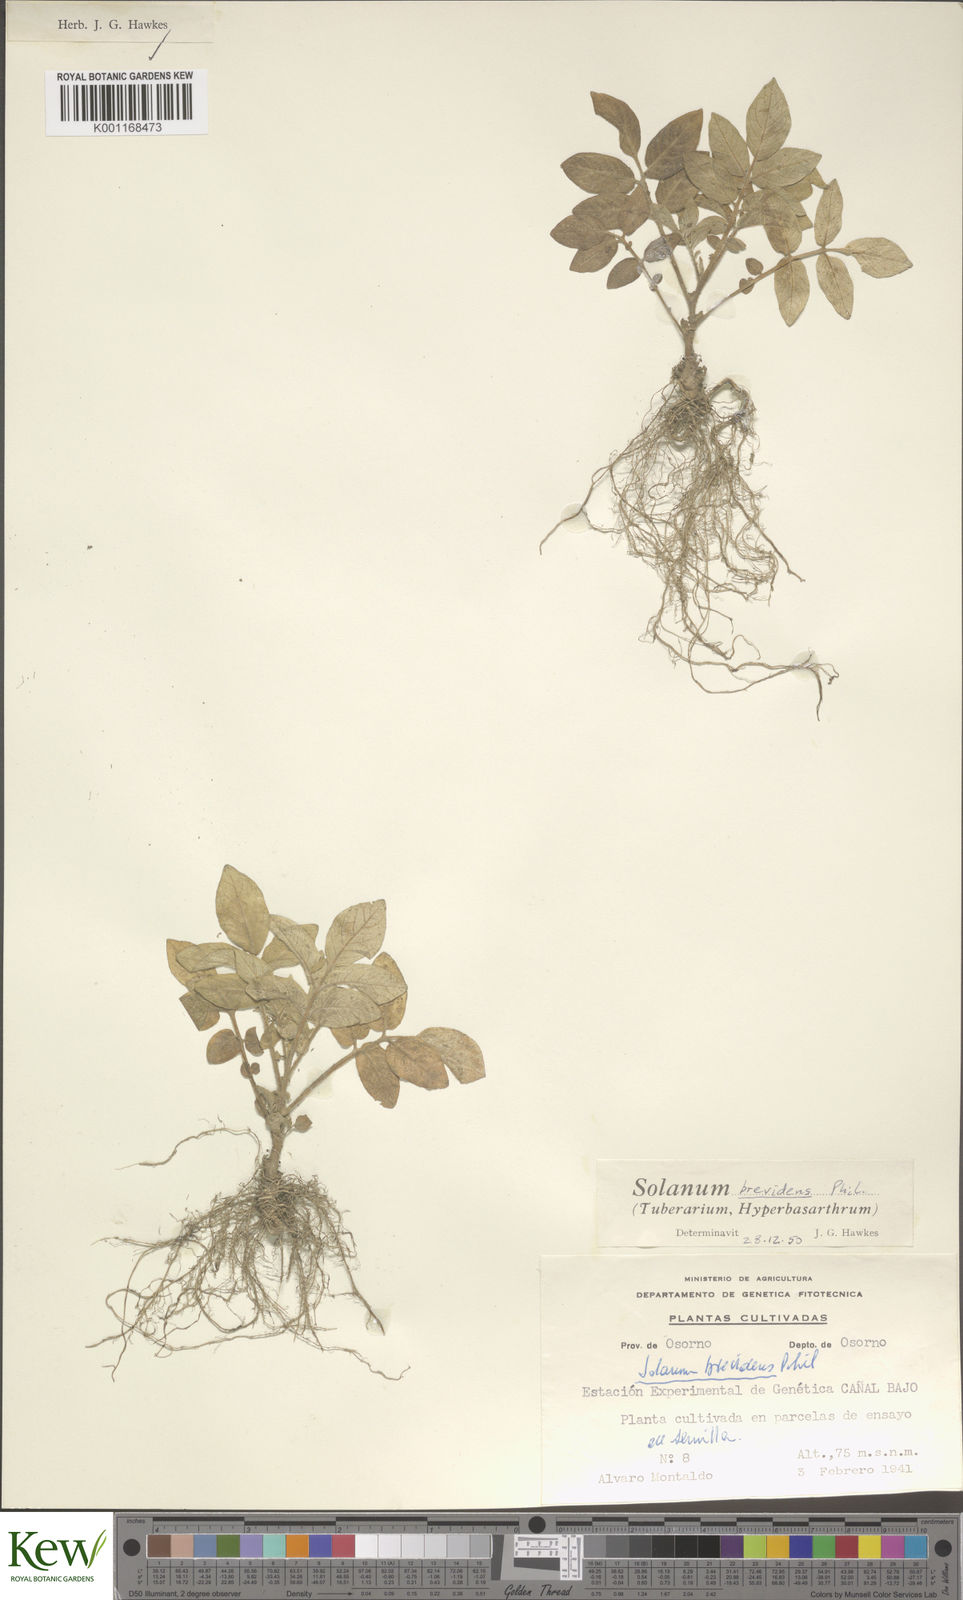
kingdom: Plantae
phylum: Tracheophyta
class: Magnoliopsida
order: Solanales
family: Solanaceae
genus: Solanum
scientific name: Solanum palustre
